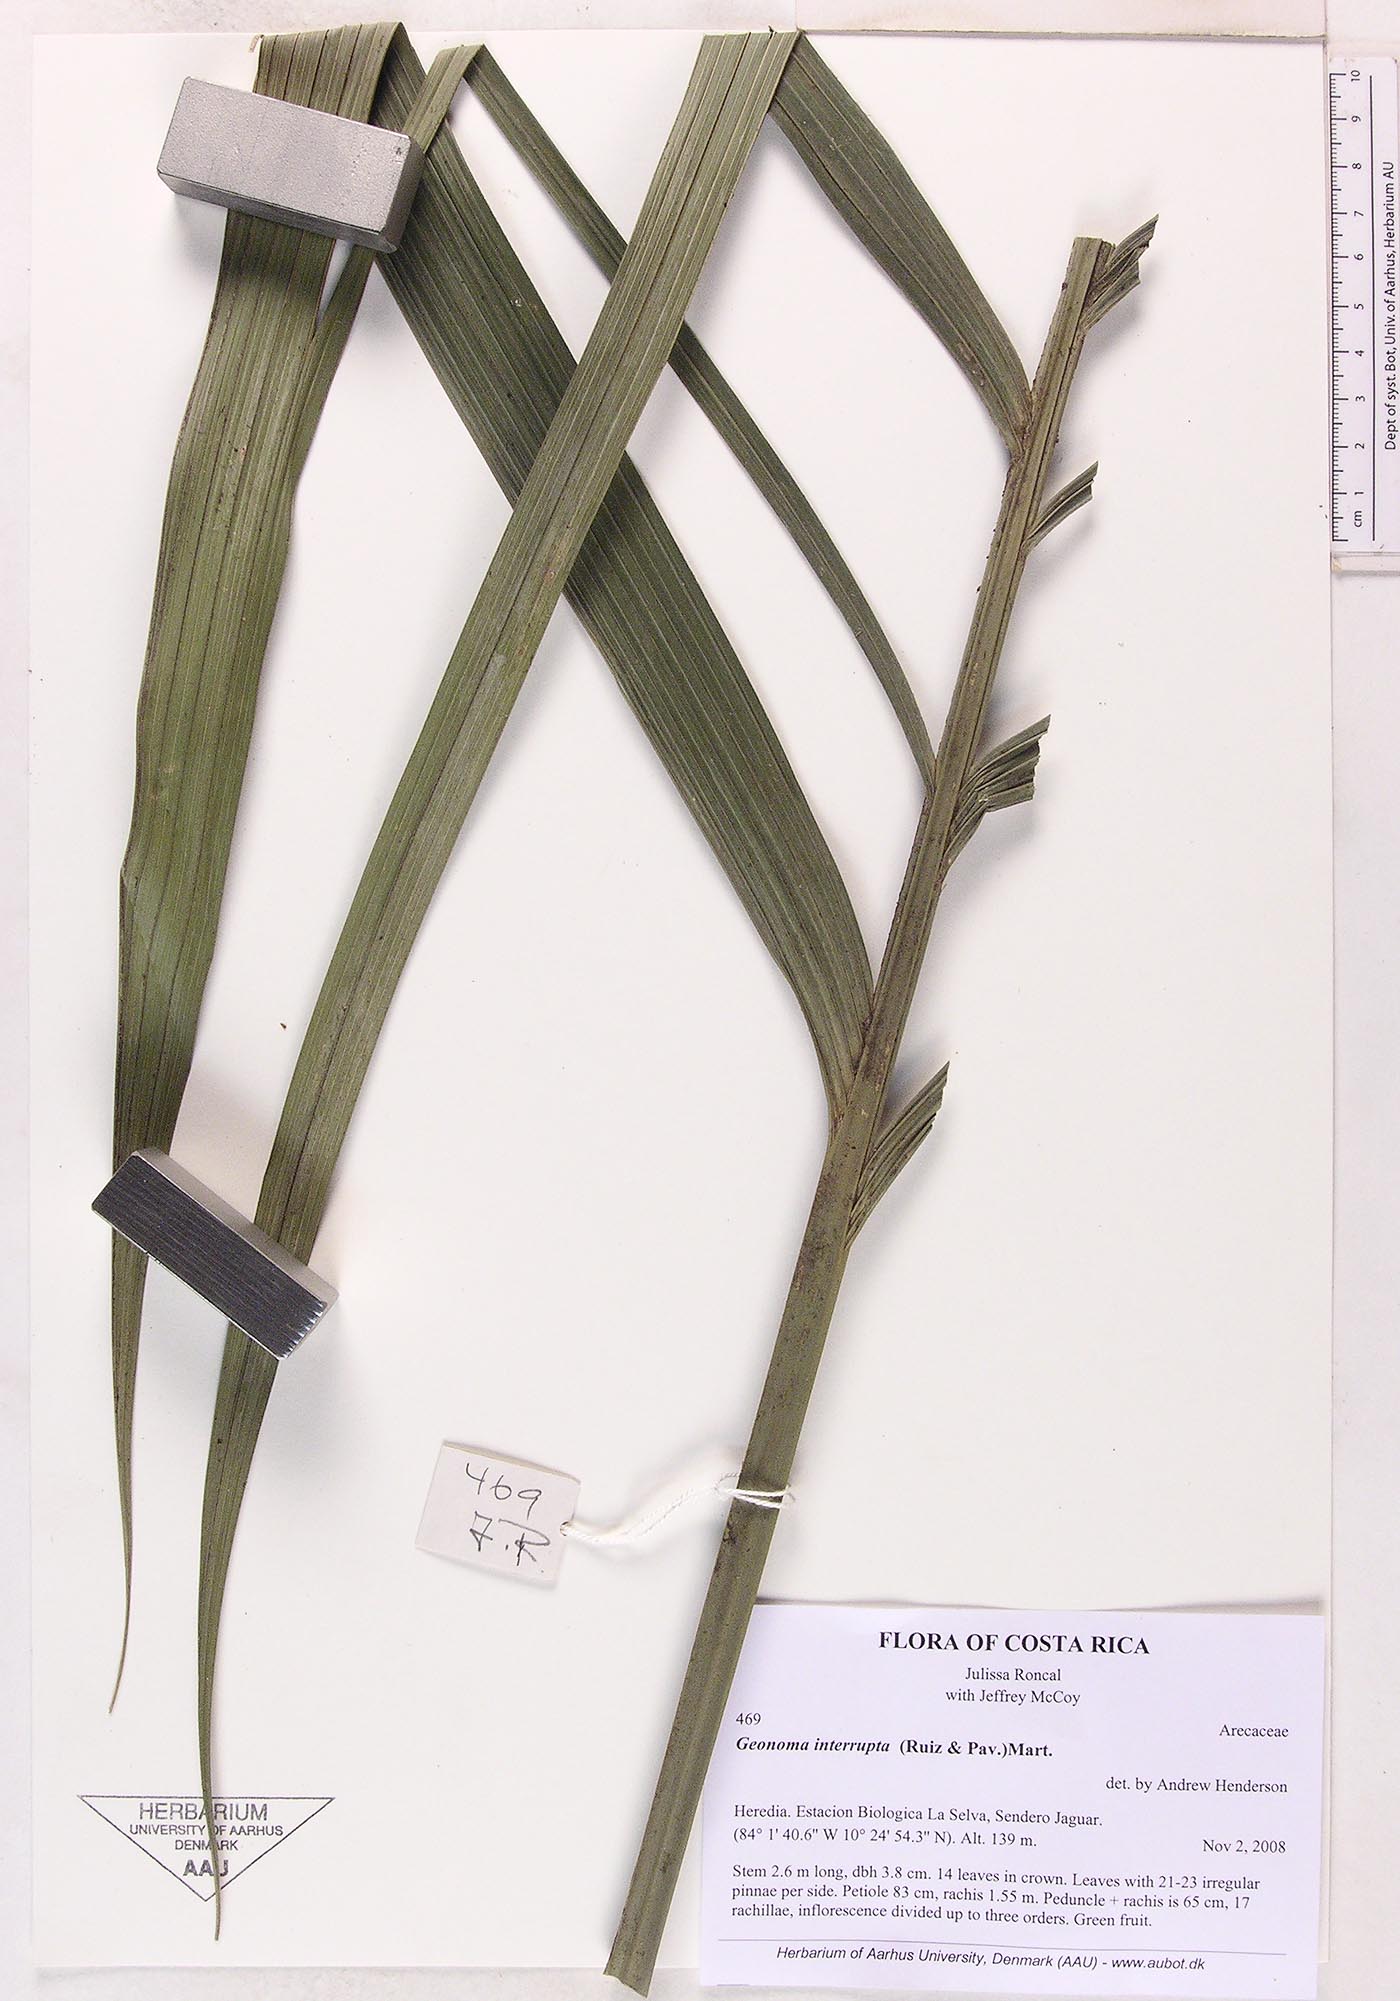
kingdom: Plantae
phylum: Tracheophyta
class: Liliopsida
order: Arecales
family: Arecaceae
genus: Geonoma
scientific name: Geonoma interrupta
